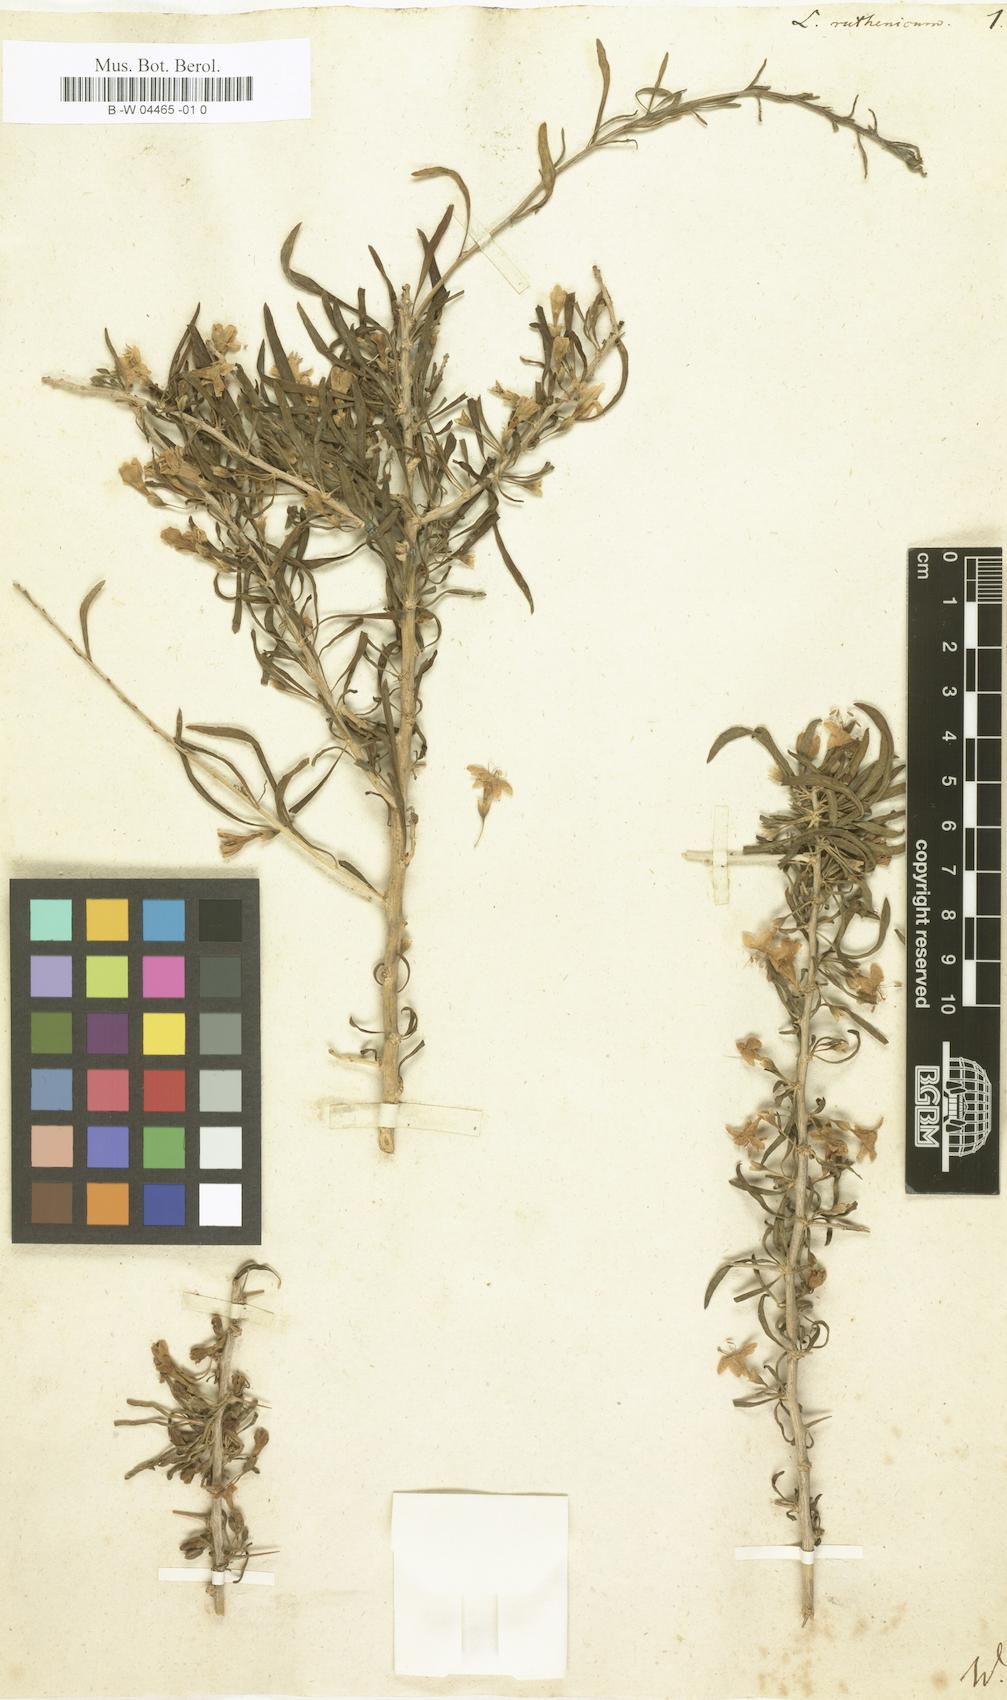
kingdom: Plantae
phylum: Tracheophyta
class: Magnoliopsida
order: Solanales
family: Solanaceae
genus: Lycium
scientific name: Lycium ruthenicum
